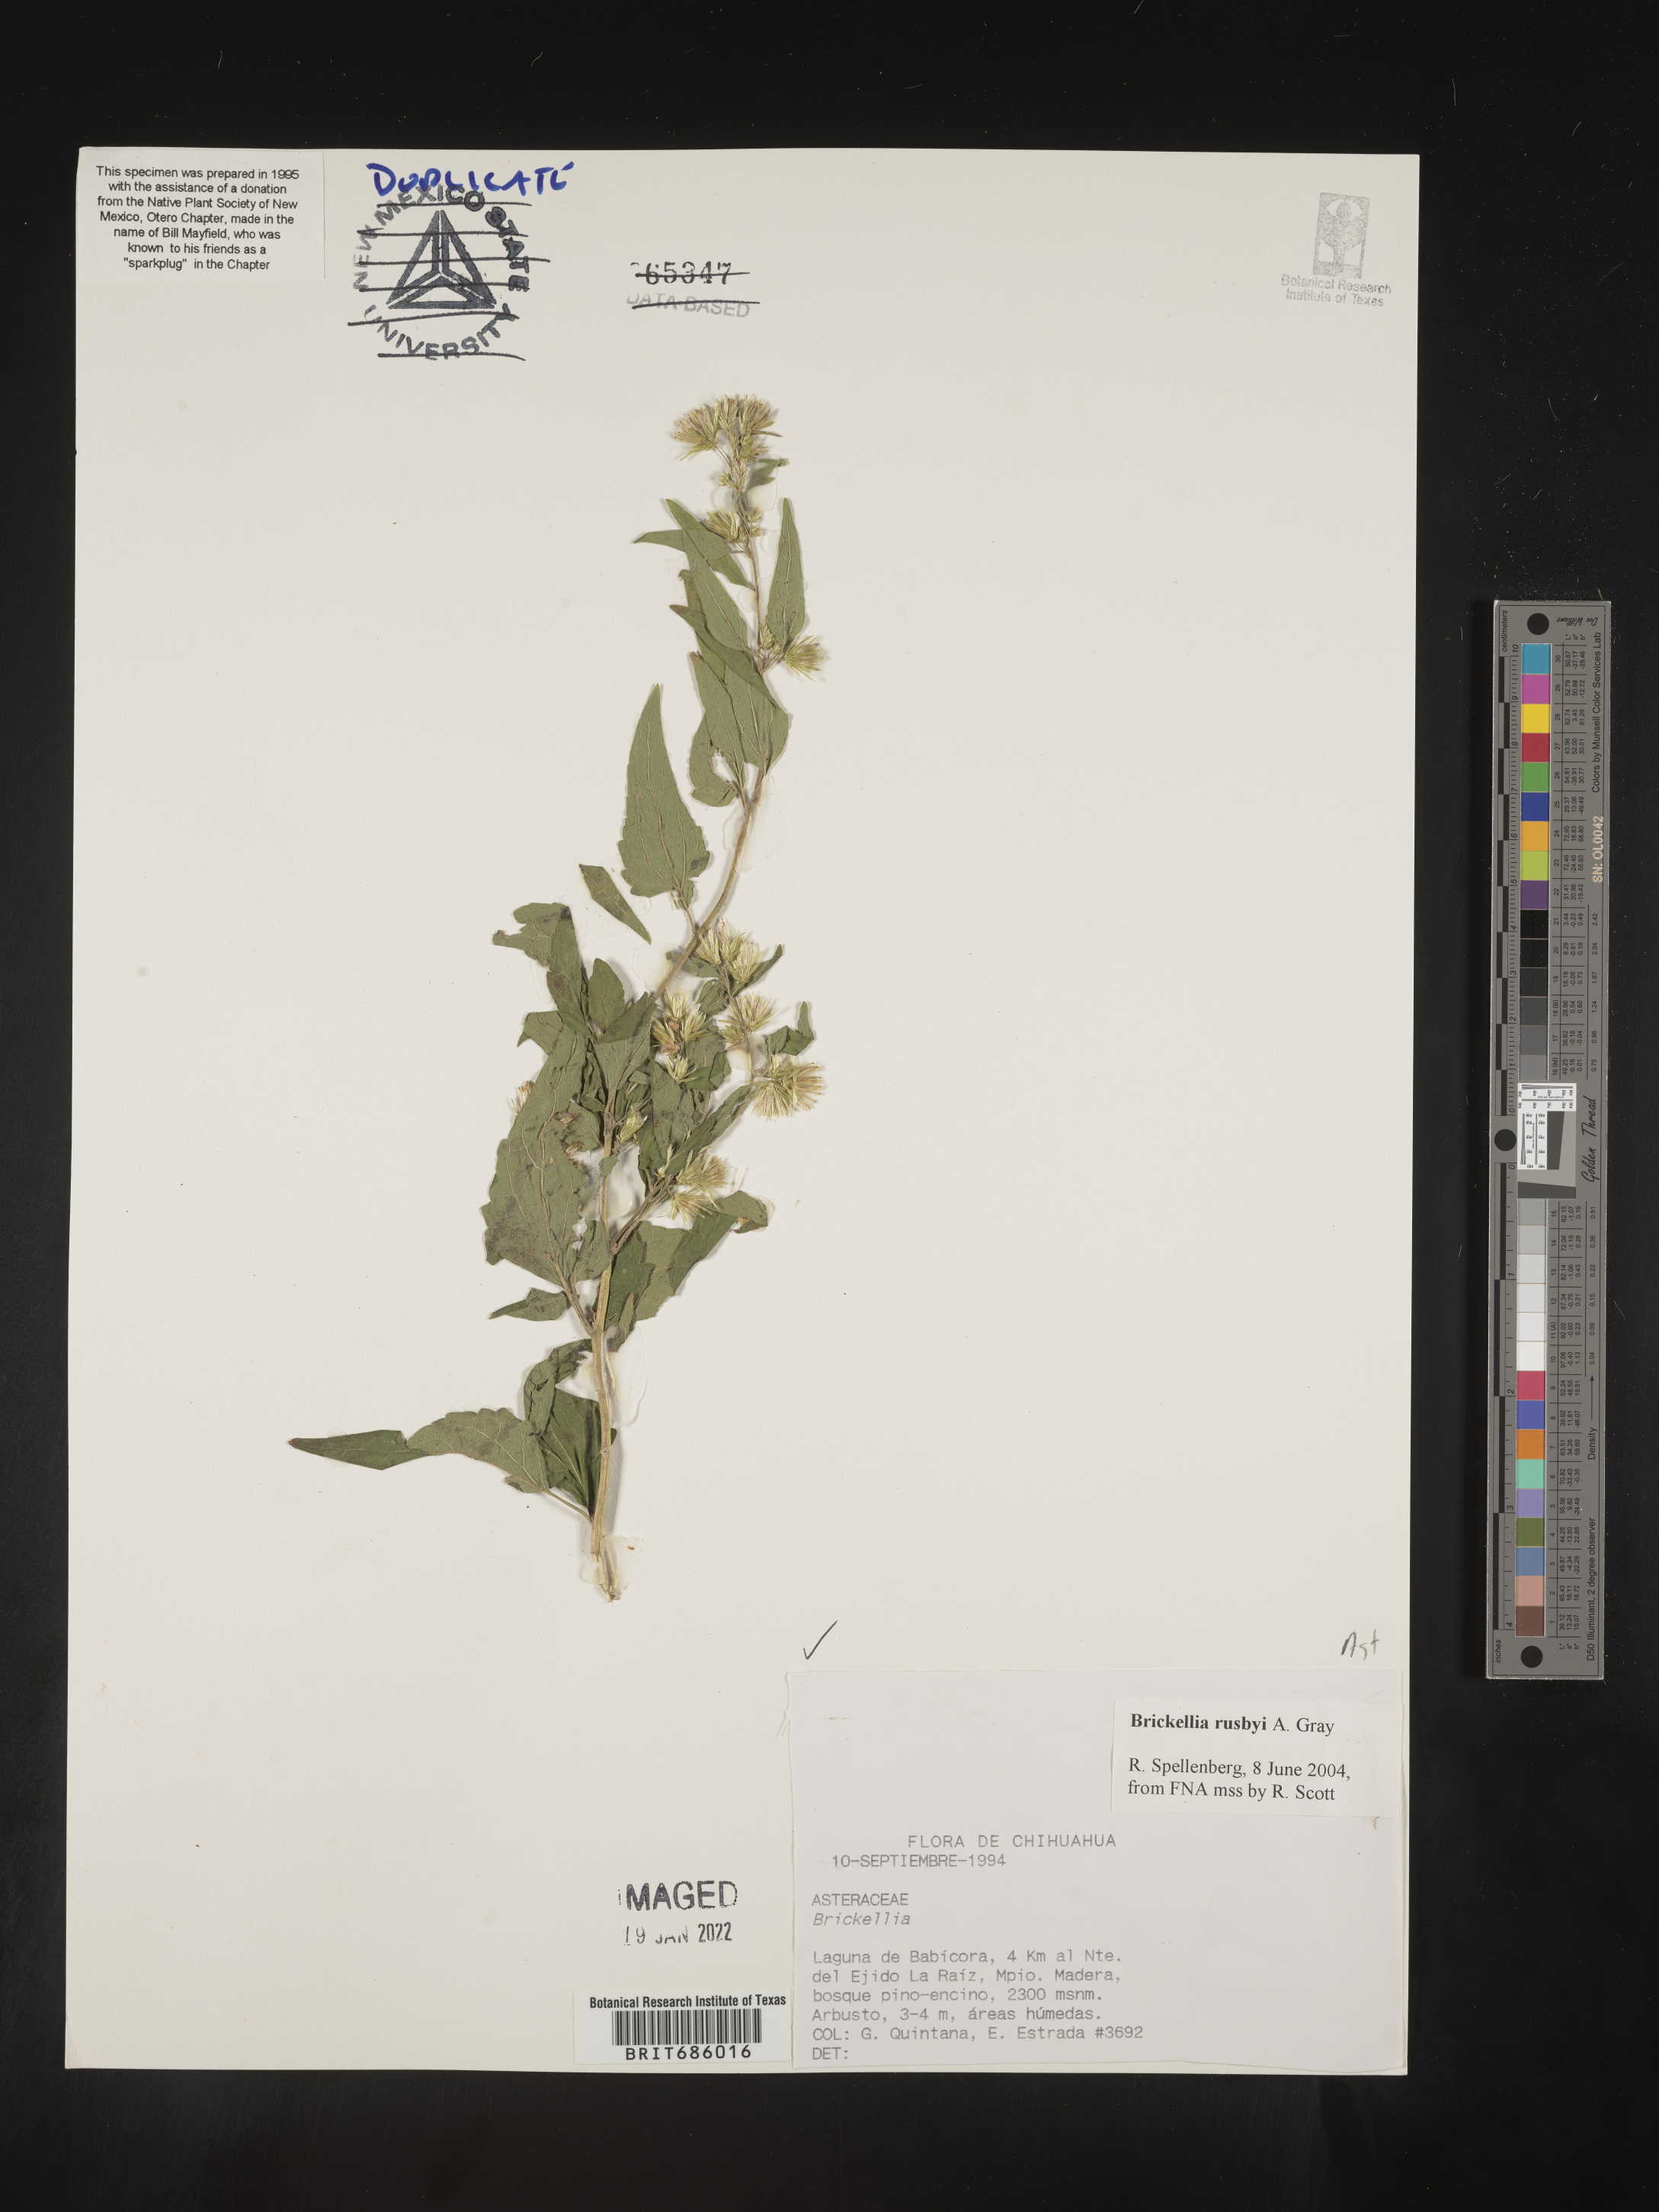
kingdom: Plantae
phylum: Tracheophyta
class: Magnoliopsida
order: Asterales
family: Asteraceae
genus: Brickellia
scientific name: Brickellia
